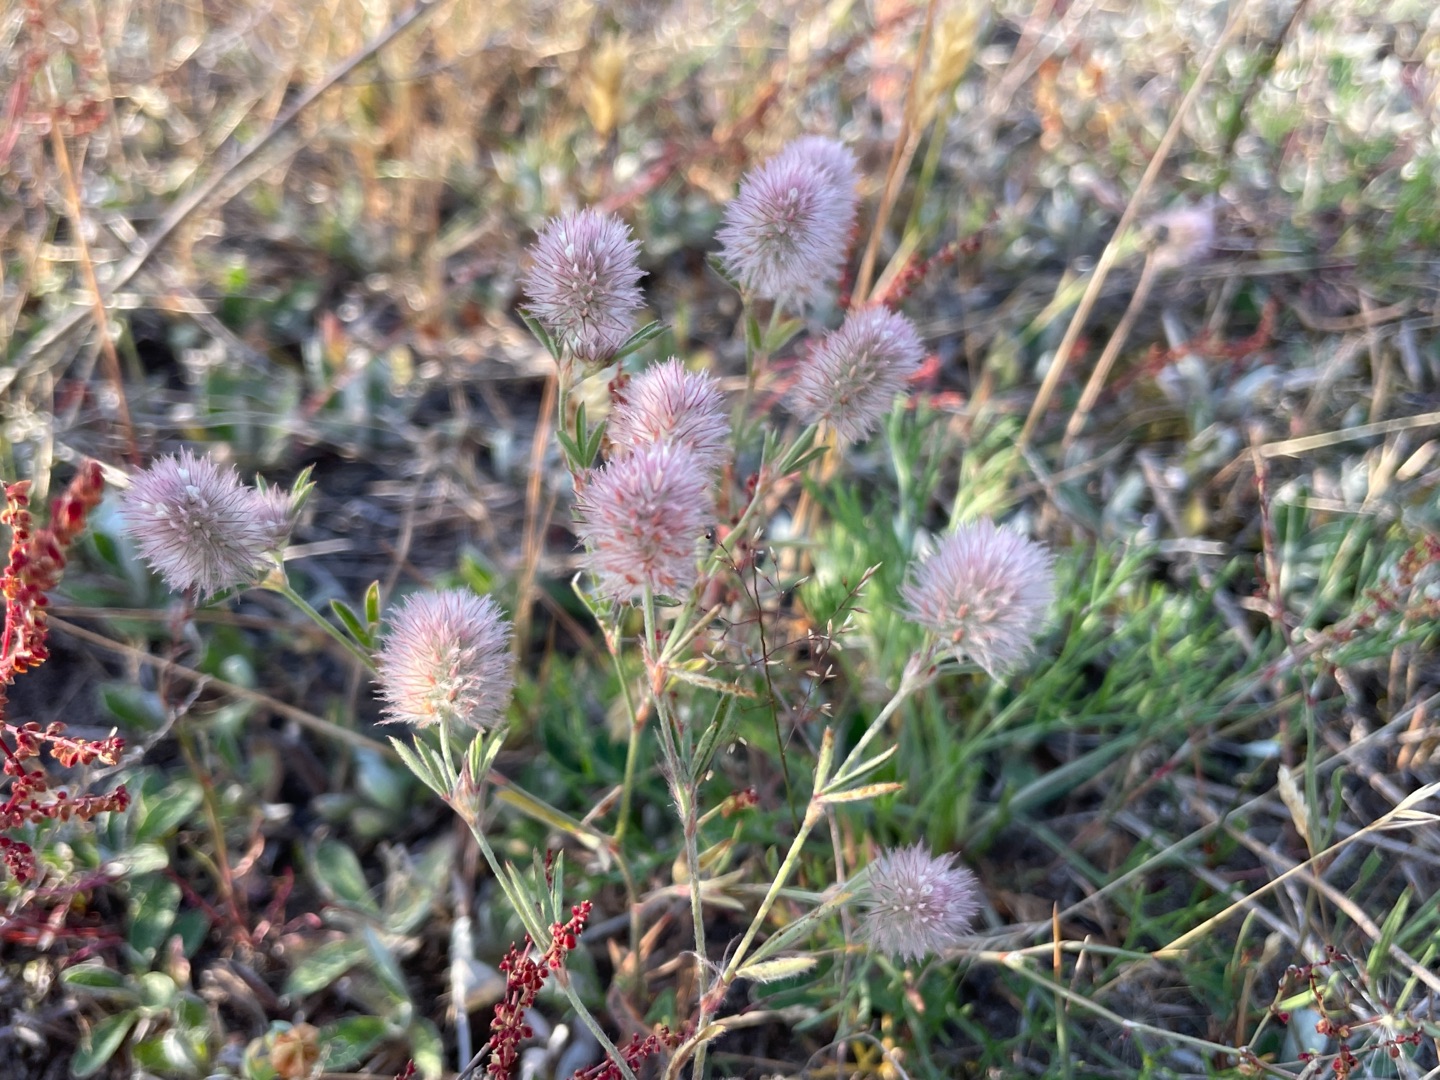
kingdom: Plantae
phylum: Tracheophyta
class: Magnoliopsida
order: Fabales
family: Fabaceae
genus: Trifolium
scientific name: Trifolium arvense
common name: Hare-kløver
